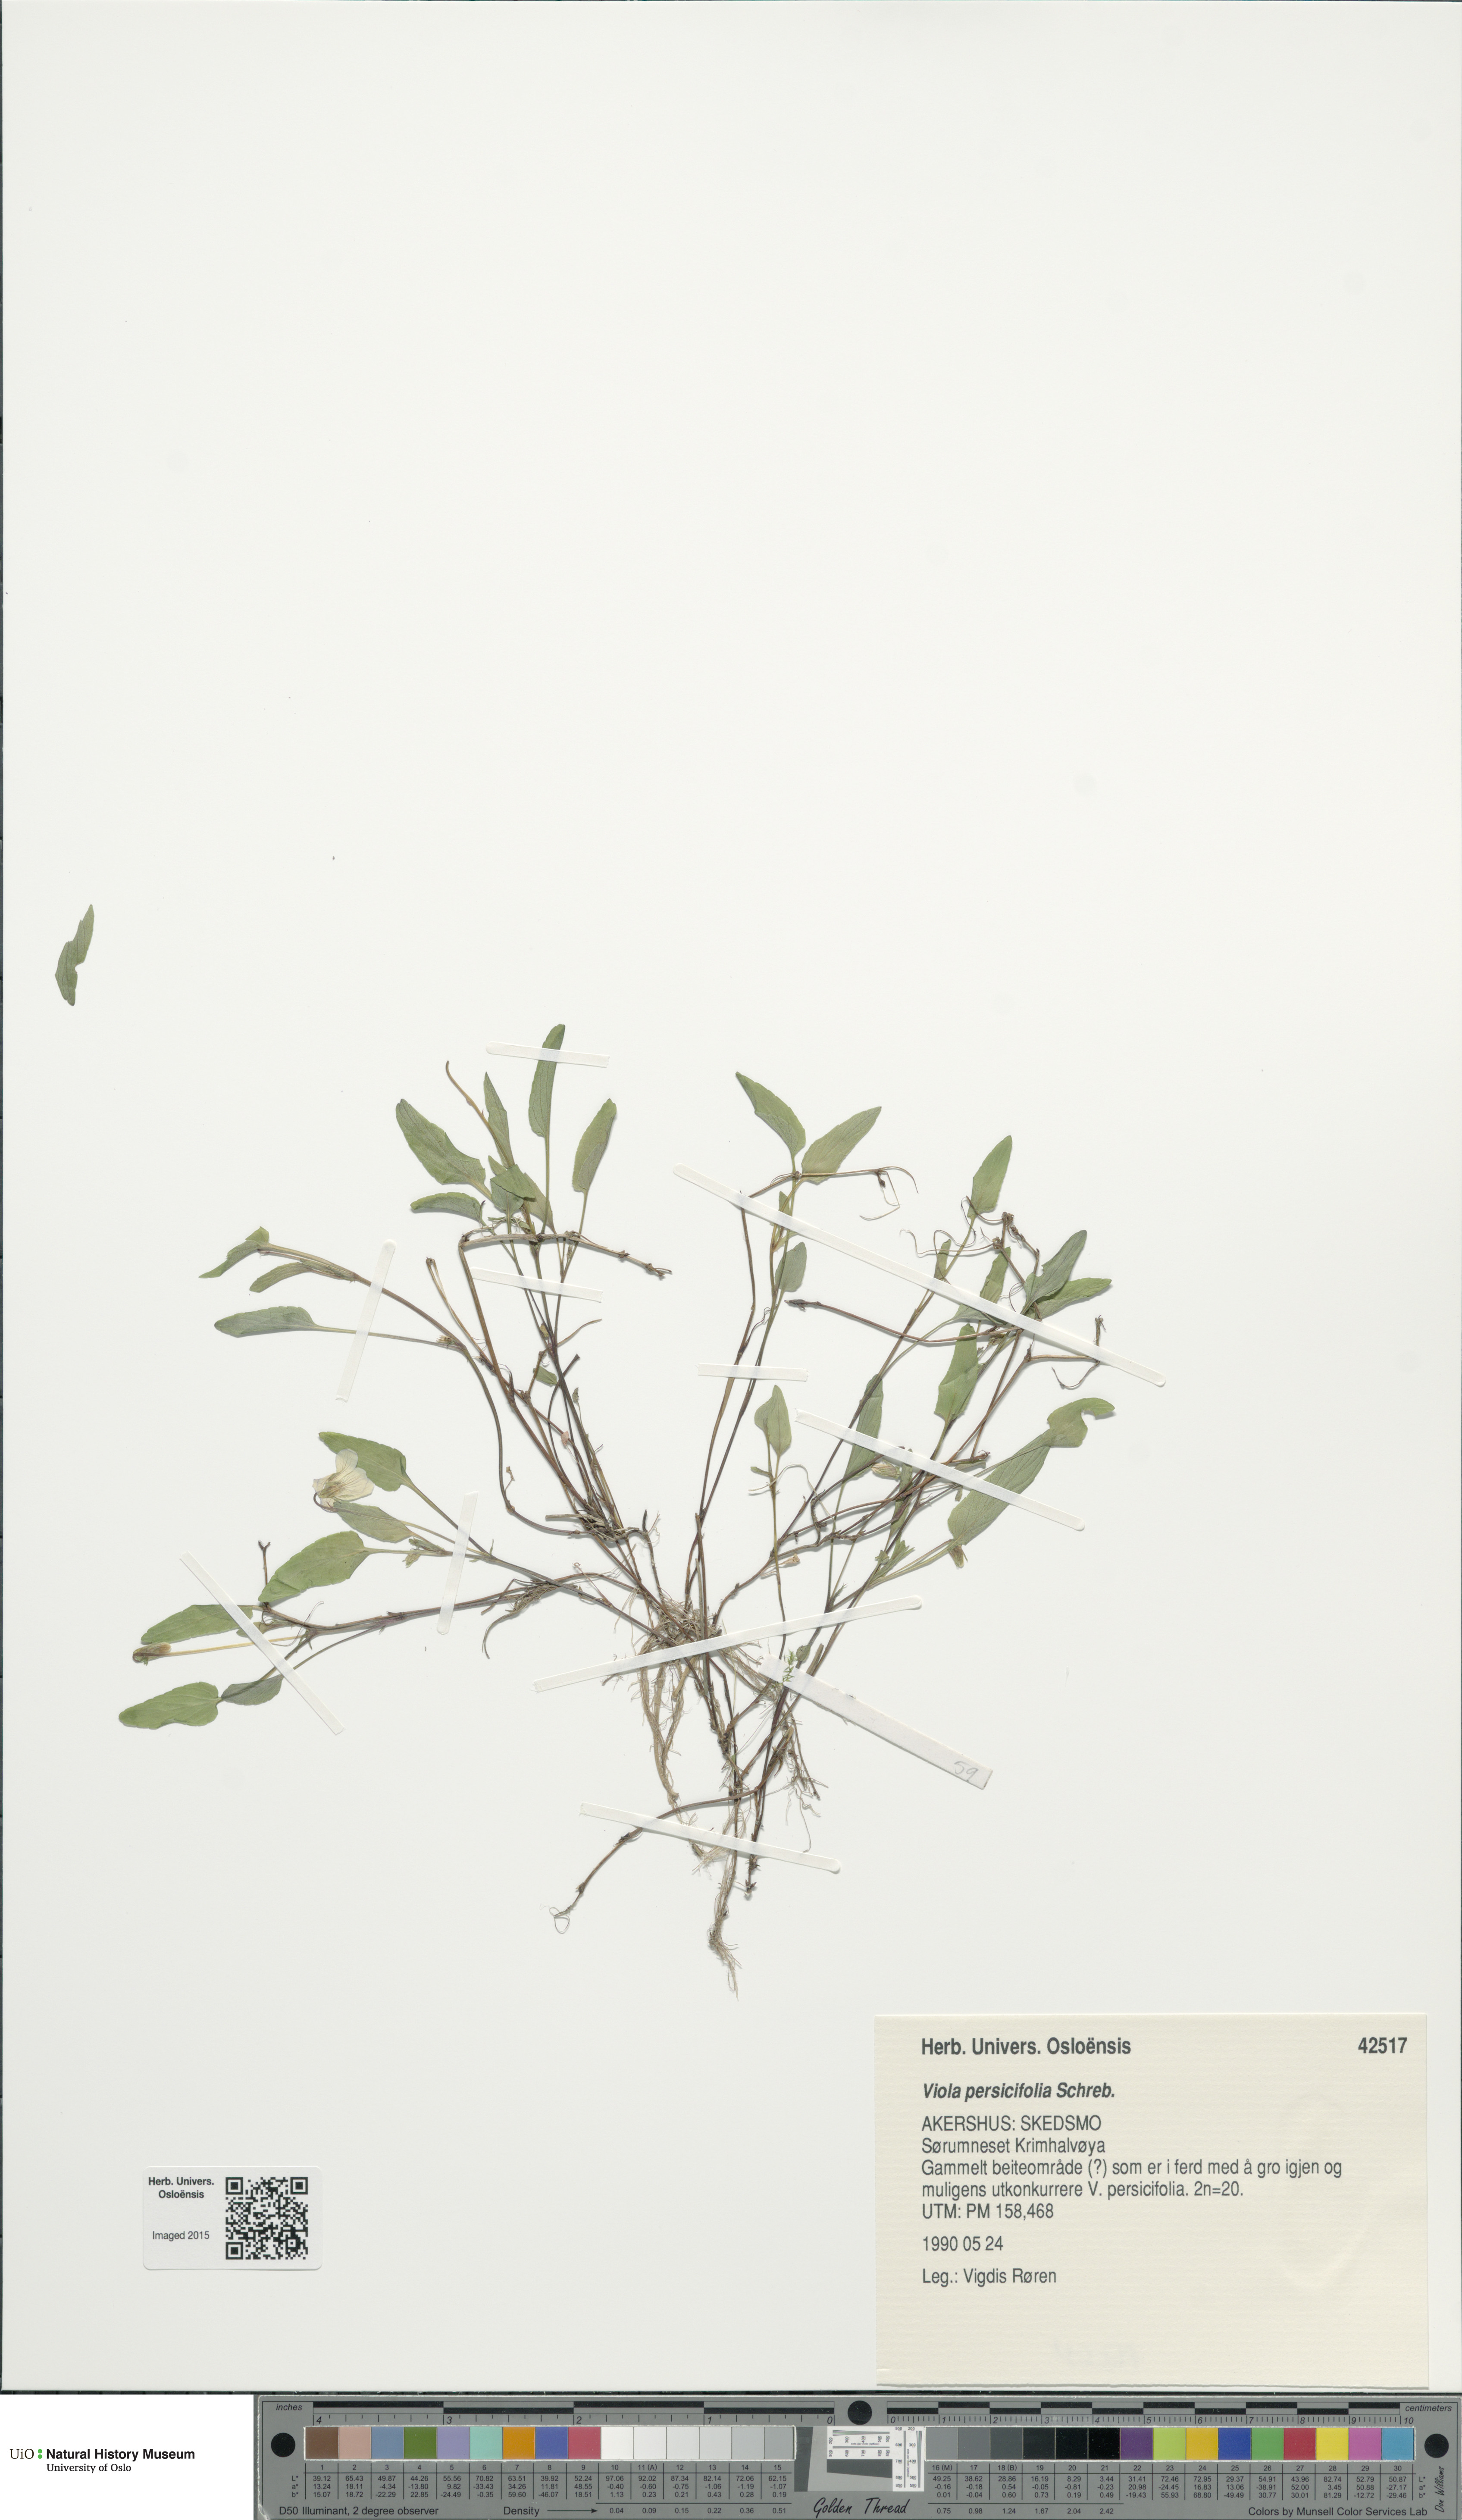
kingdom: Plantae
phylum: Tracheophyta
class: Magnoliopsida
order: Malpighiales
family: Violaceae
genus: Viola
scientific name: Viola stagnina
